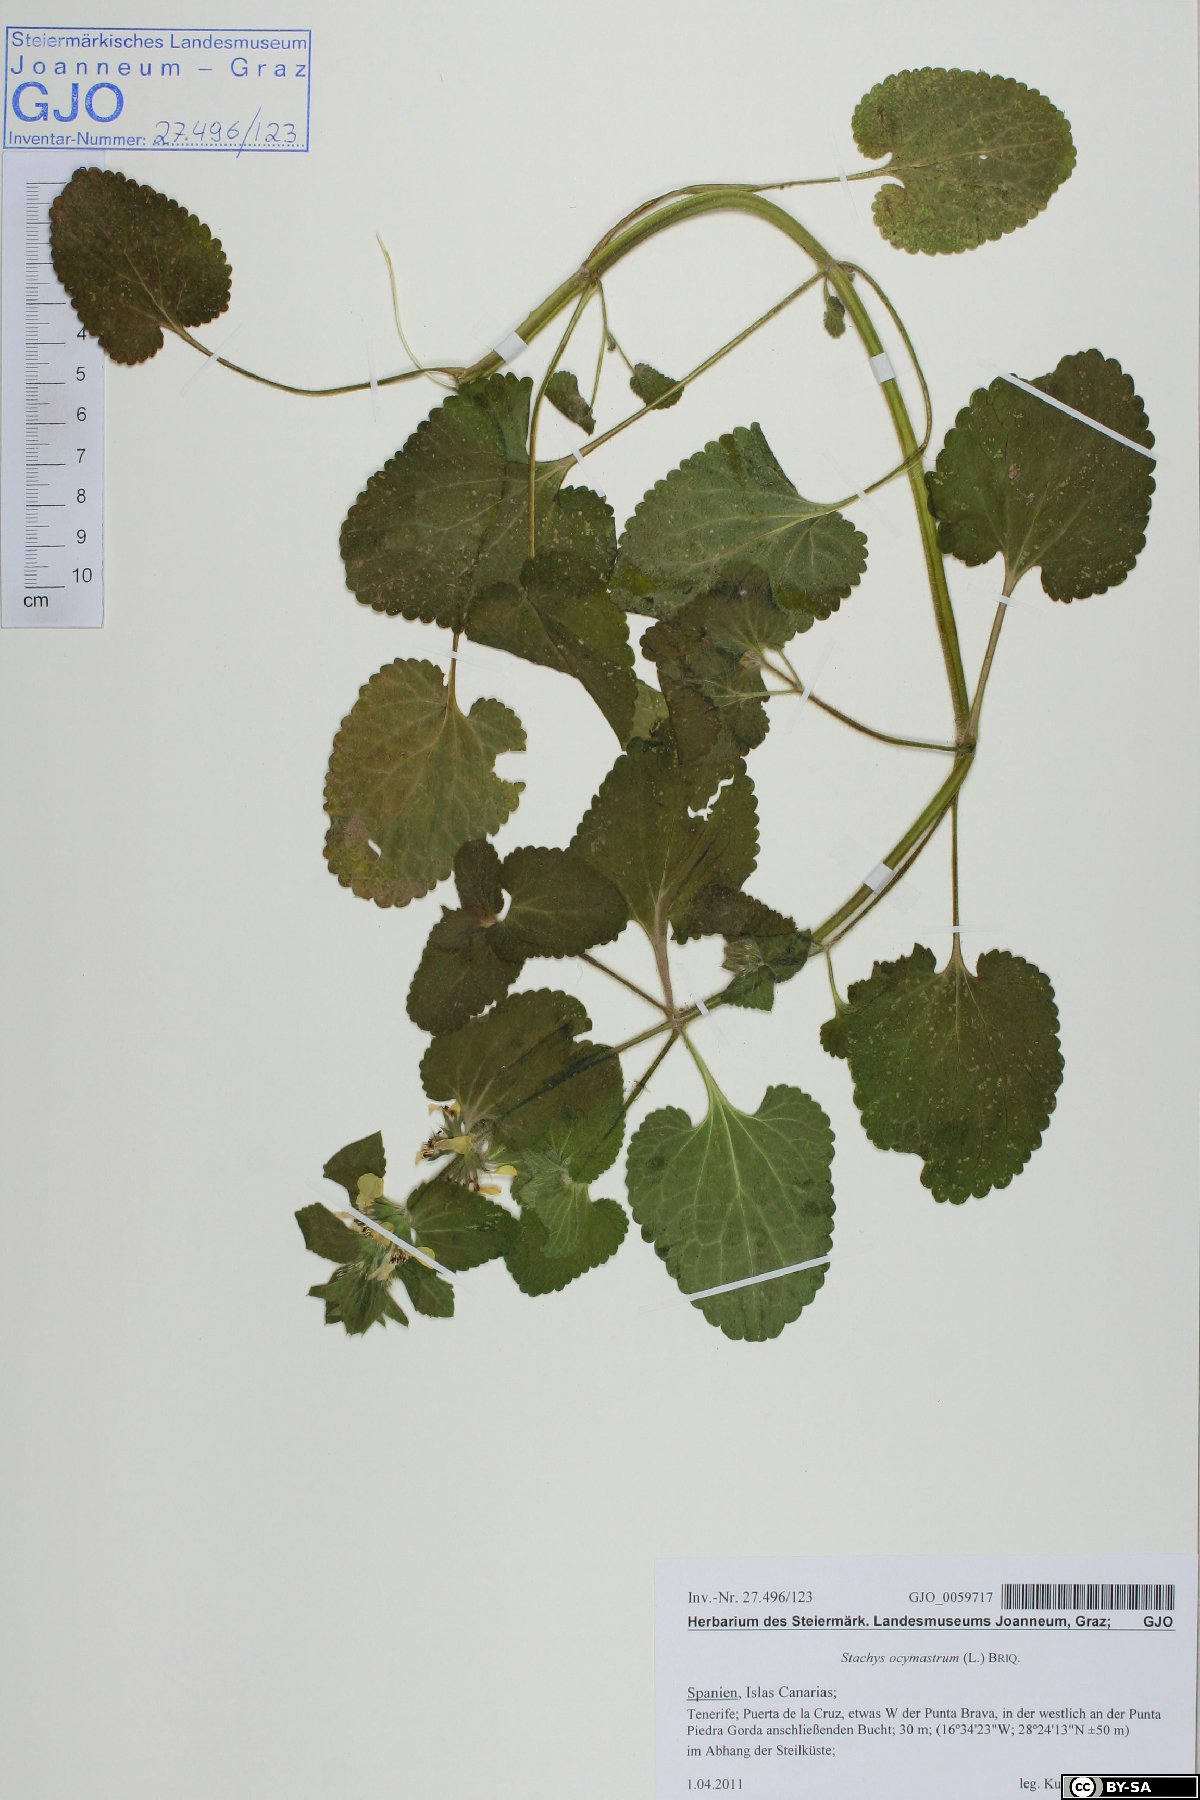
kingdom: Plantae
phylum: Tracheophyta
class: Magnoliopsida
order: Lamiales
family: Lamiaceae
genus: Stachys
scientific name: Stachys ocymastrum
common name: Italian hedgenettle
